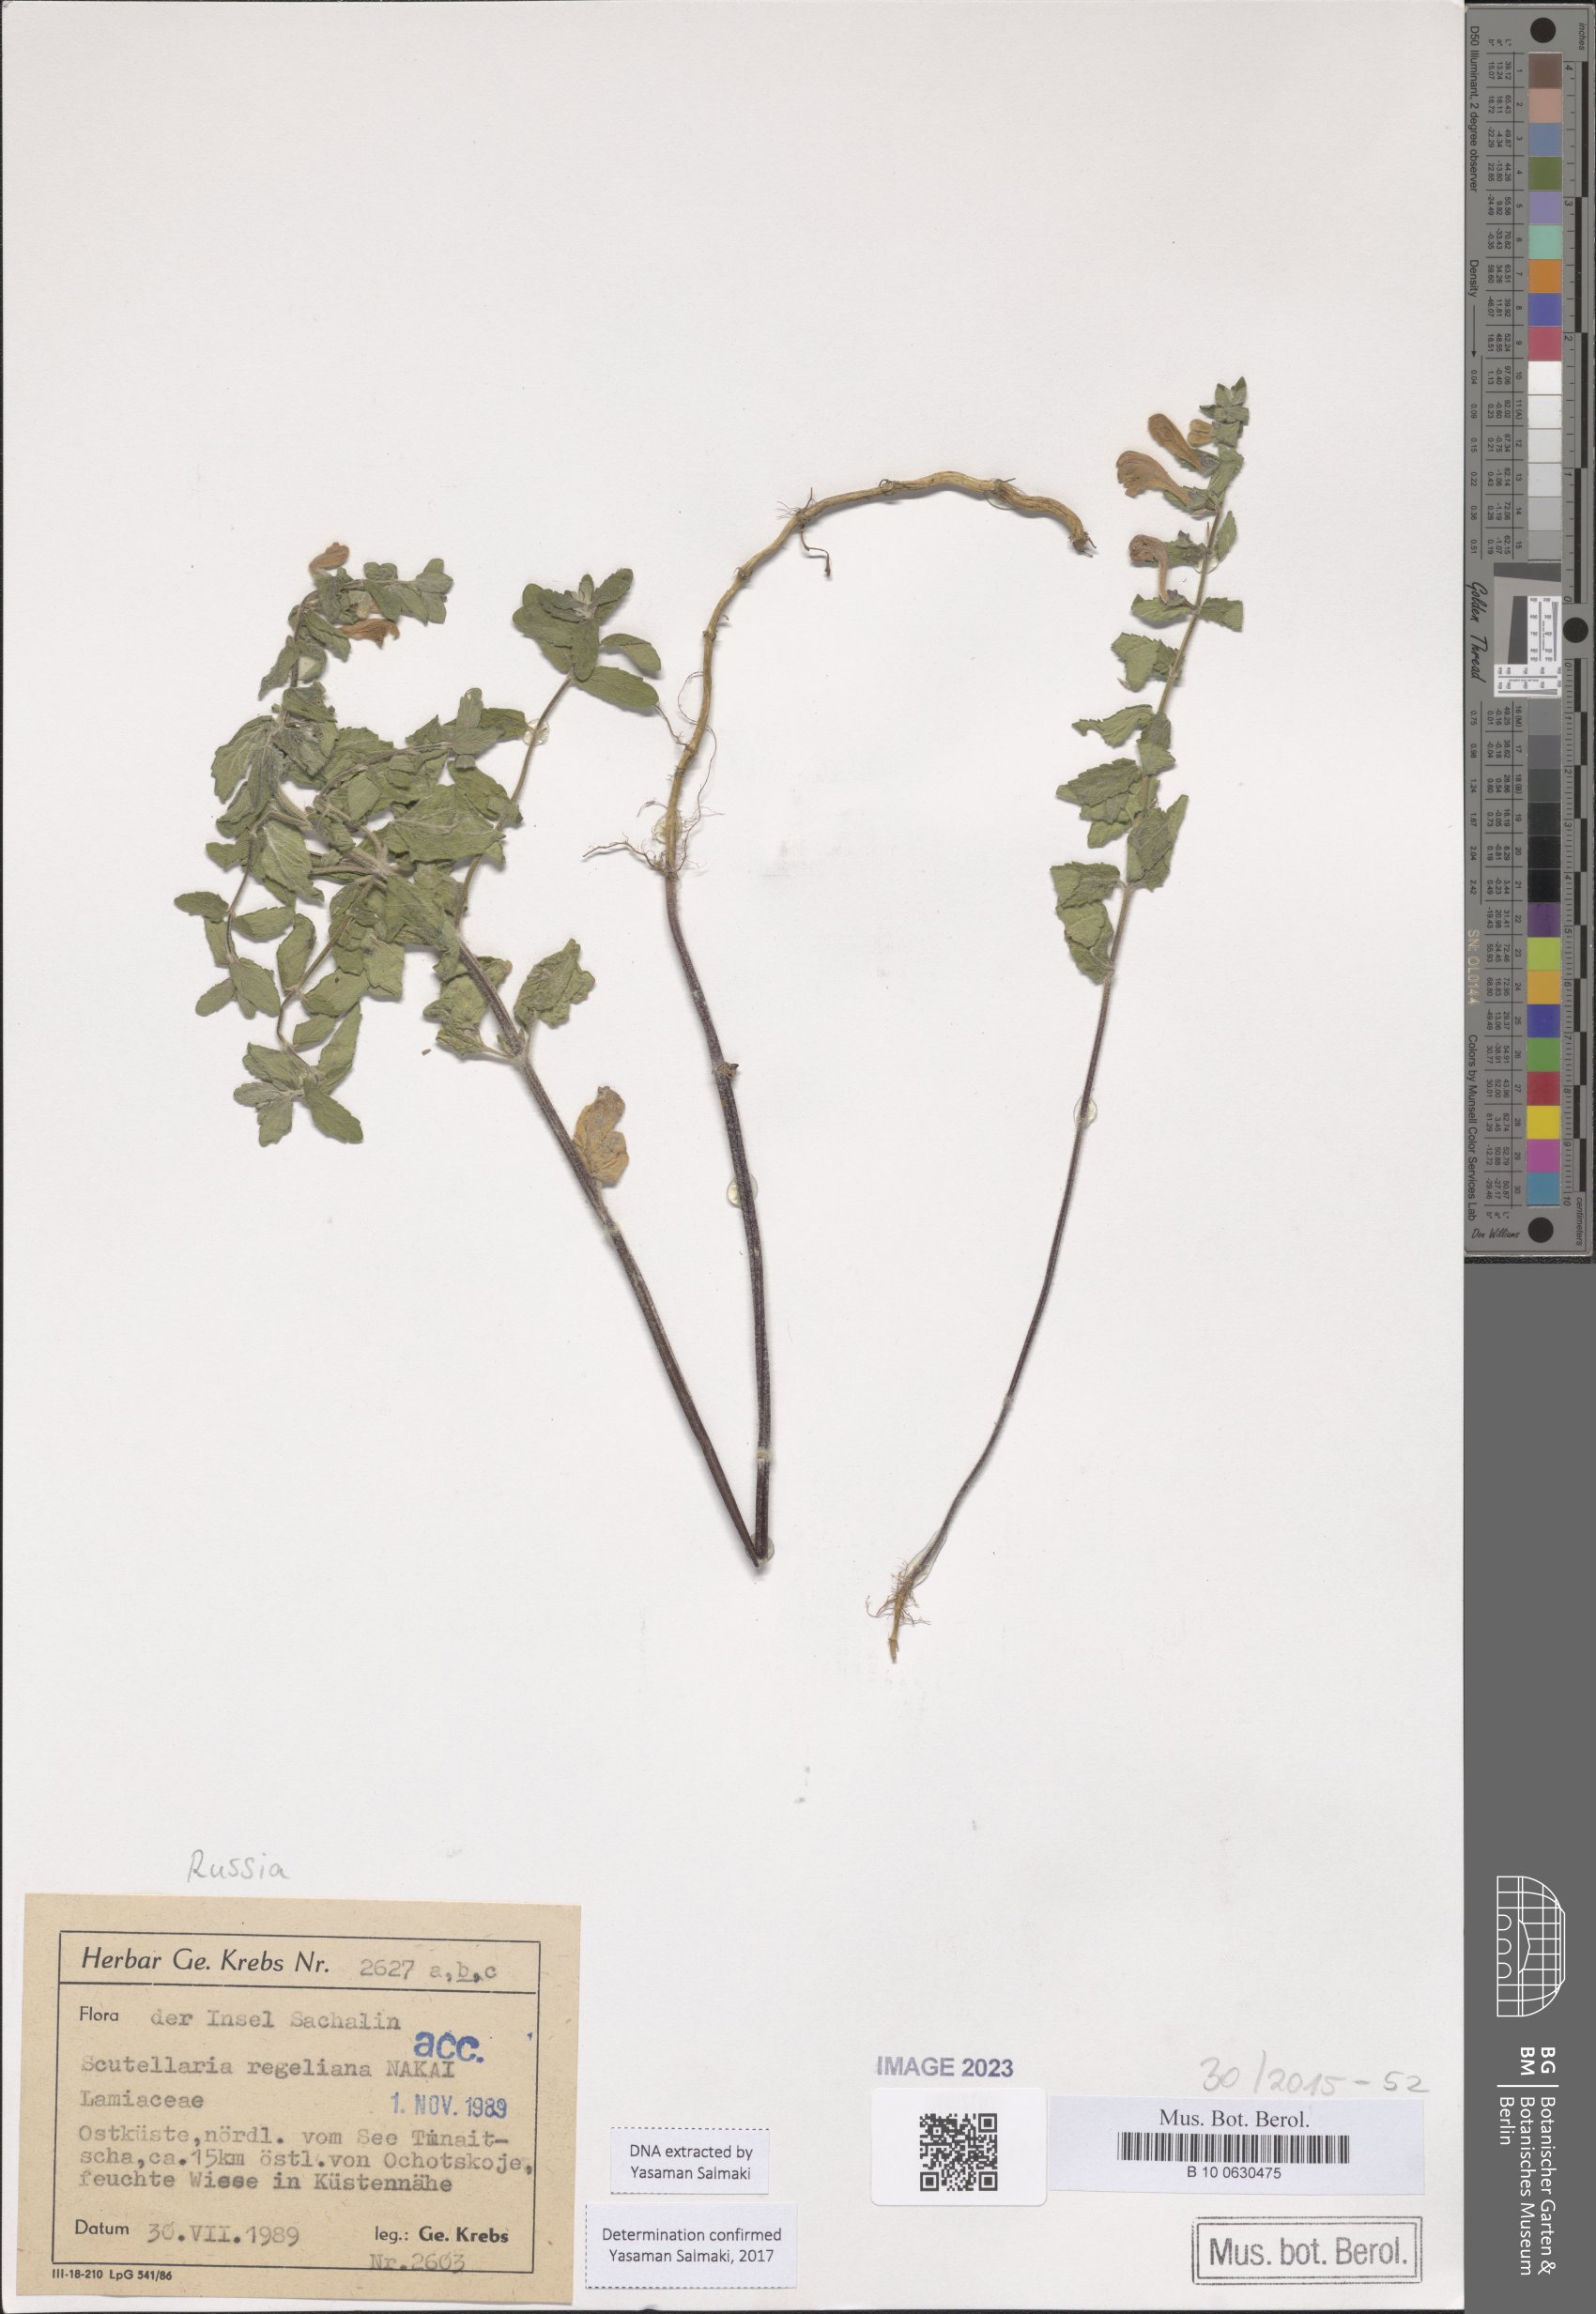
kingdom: Plantae
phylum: Tracheophyta
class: Magnoliopsida
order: Lamiales
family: Lamiaceae
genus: Scutellaria
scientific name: Scutellaria regeliana
